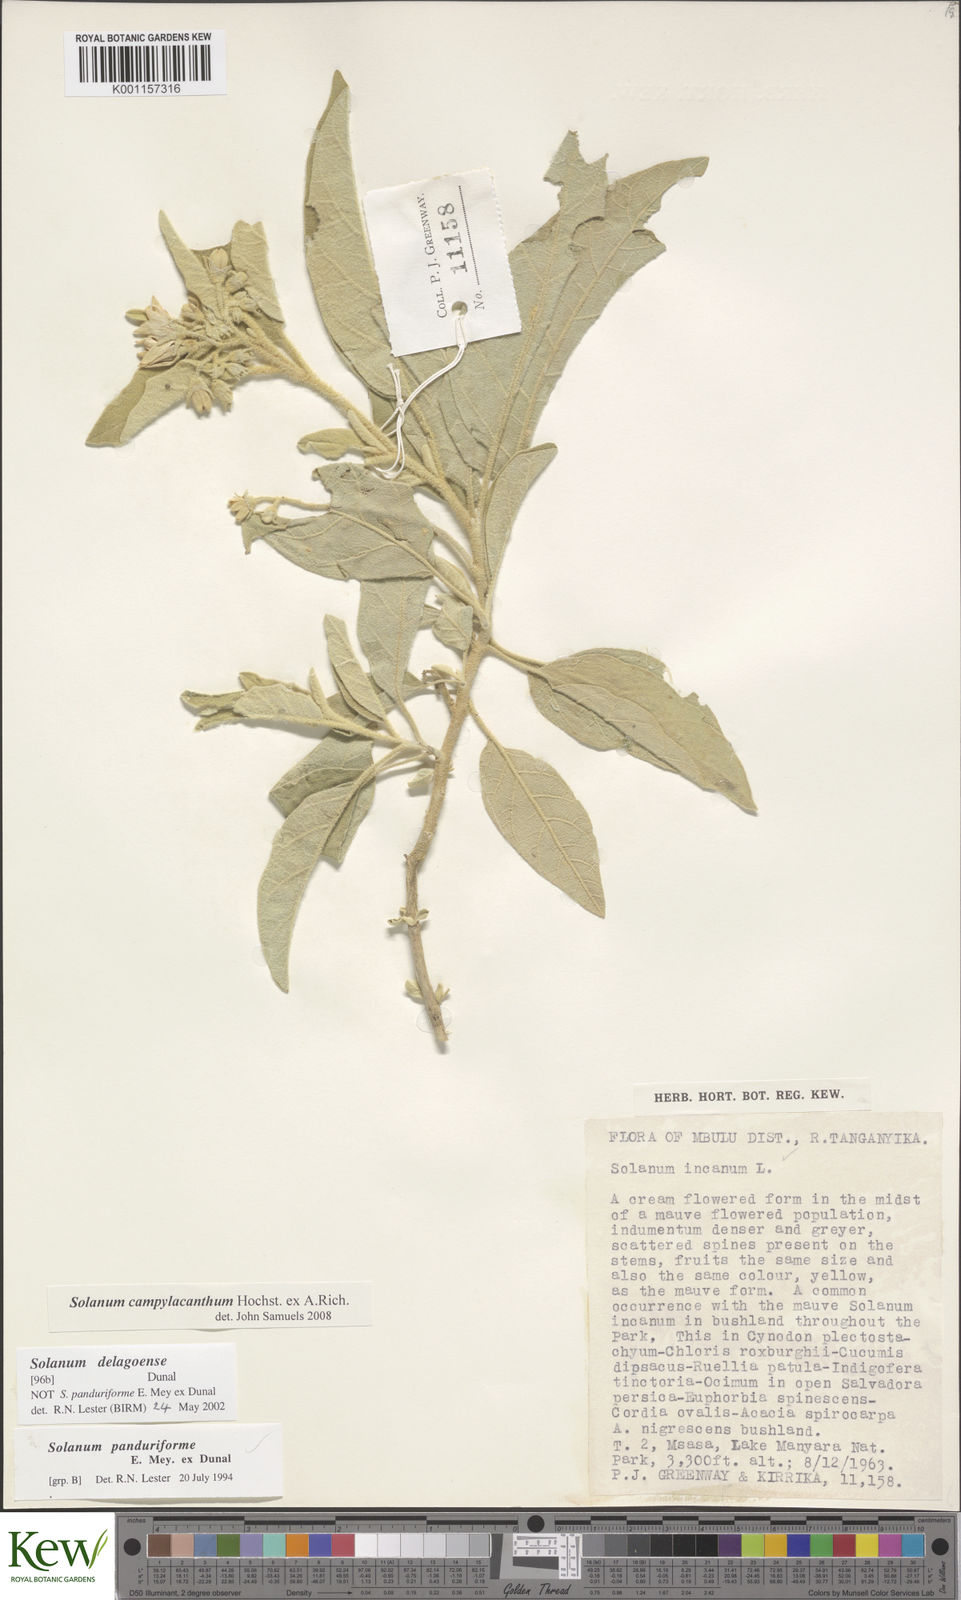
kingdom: Plantae
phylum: Tracheophyta
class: Magnoliopsida
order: Solanales
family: Solanaceae
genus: Solanum
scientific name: Solanum campylacanthum
